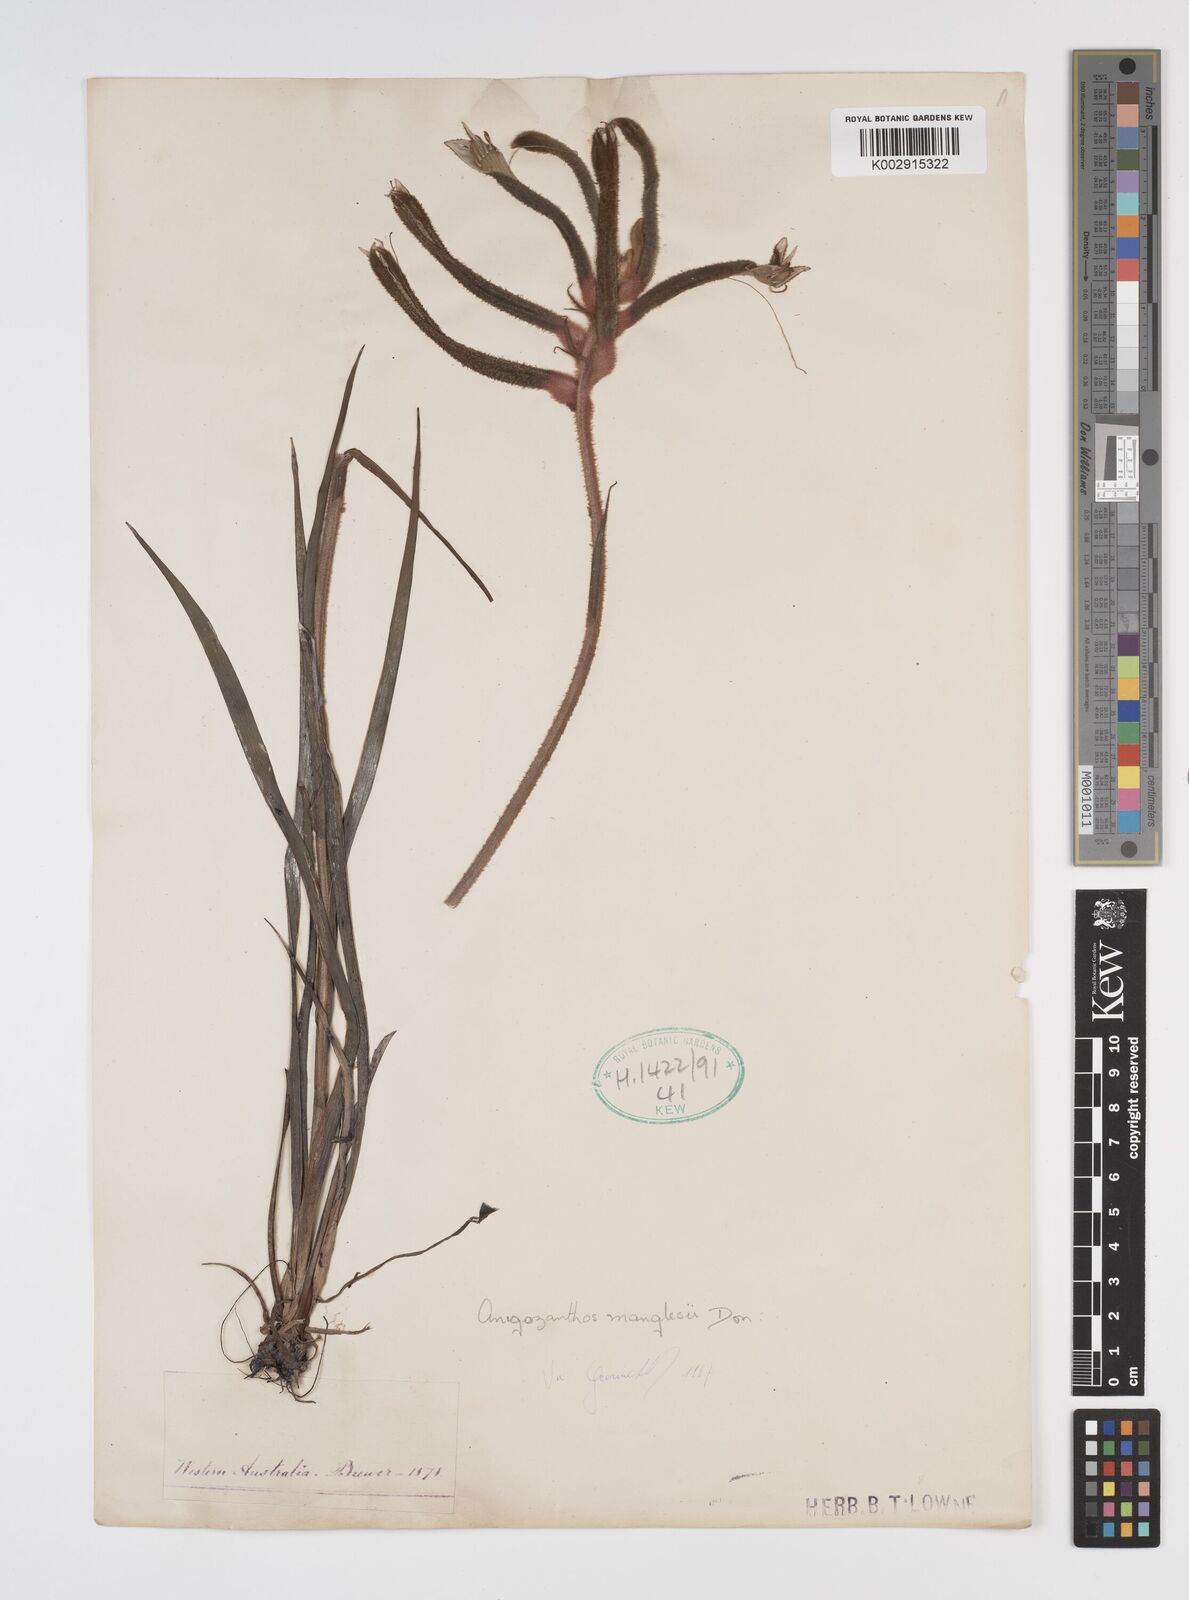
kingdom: Plantae
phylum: Tracheophyta
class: Liliopsida
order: Commelinales
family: Haemodoraceae
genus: Anigozanthos
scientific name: Anigozanthos manglesii
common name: Mangles's kangaroo-paw
